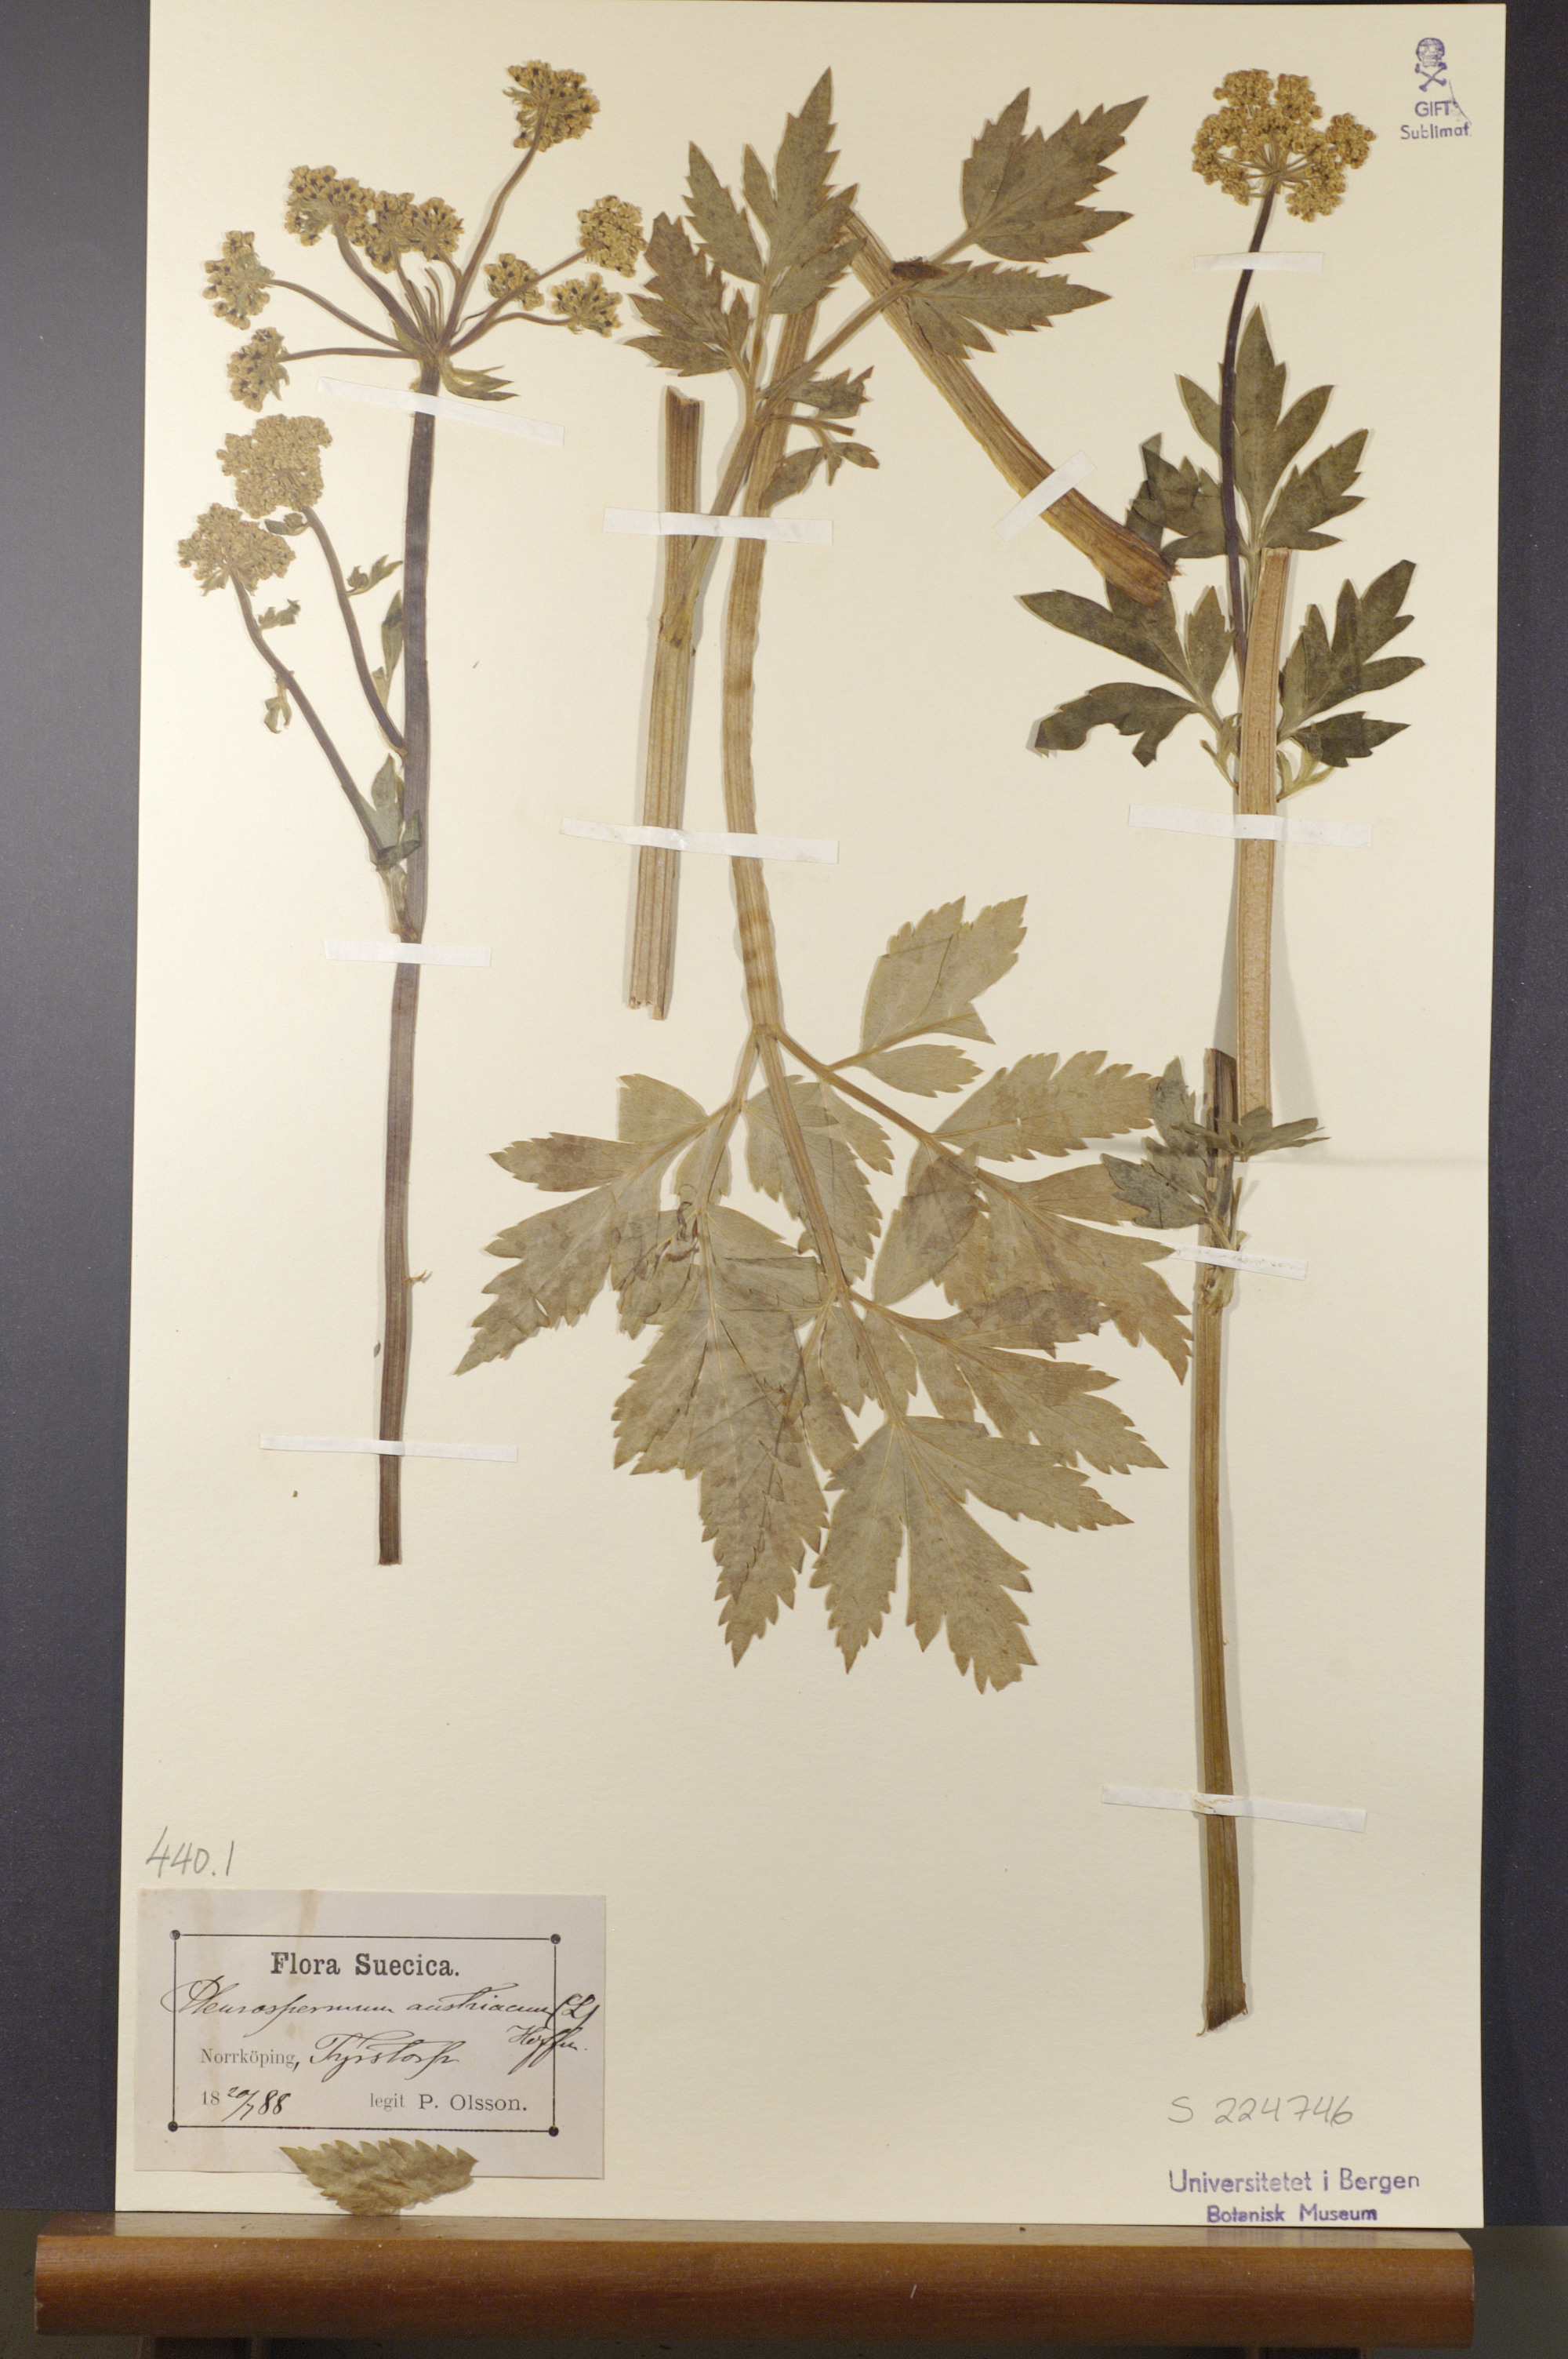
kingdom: Plantae
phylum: Tracheophyta
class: Magnoliopsida
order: Apiales
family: Apiaceae
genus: Pleurospermum
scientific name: Pleurospermum austriacum
